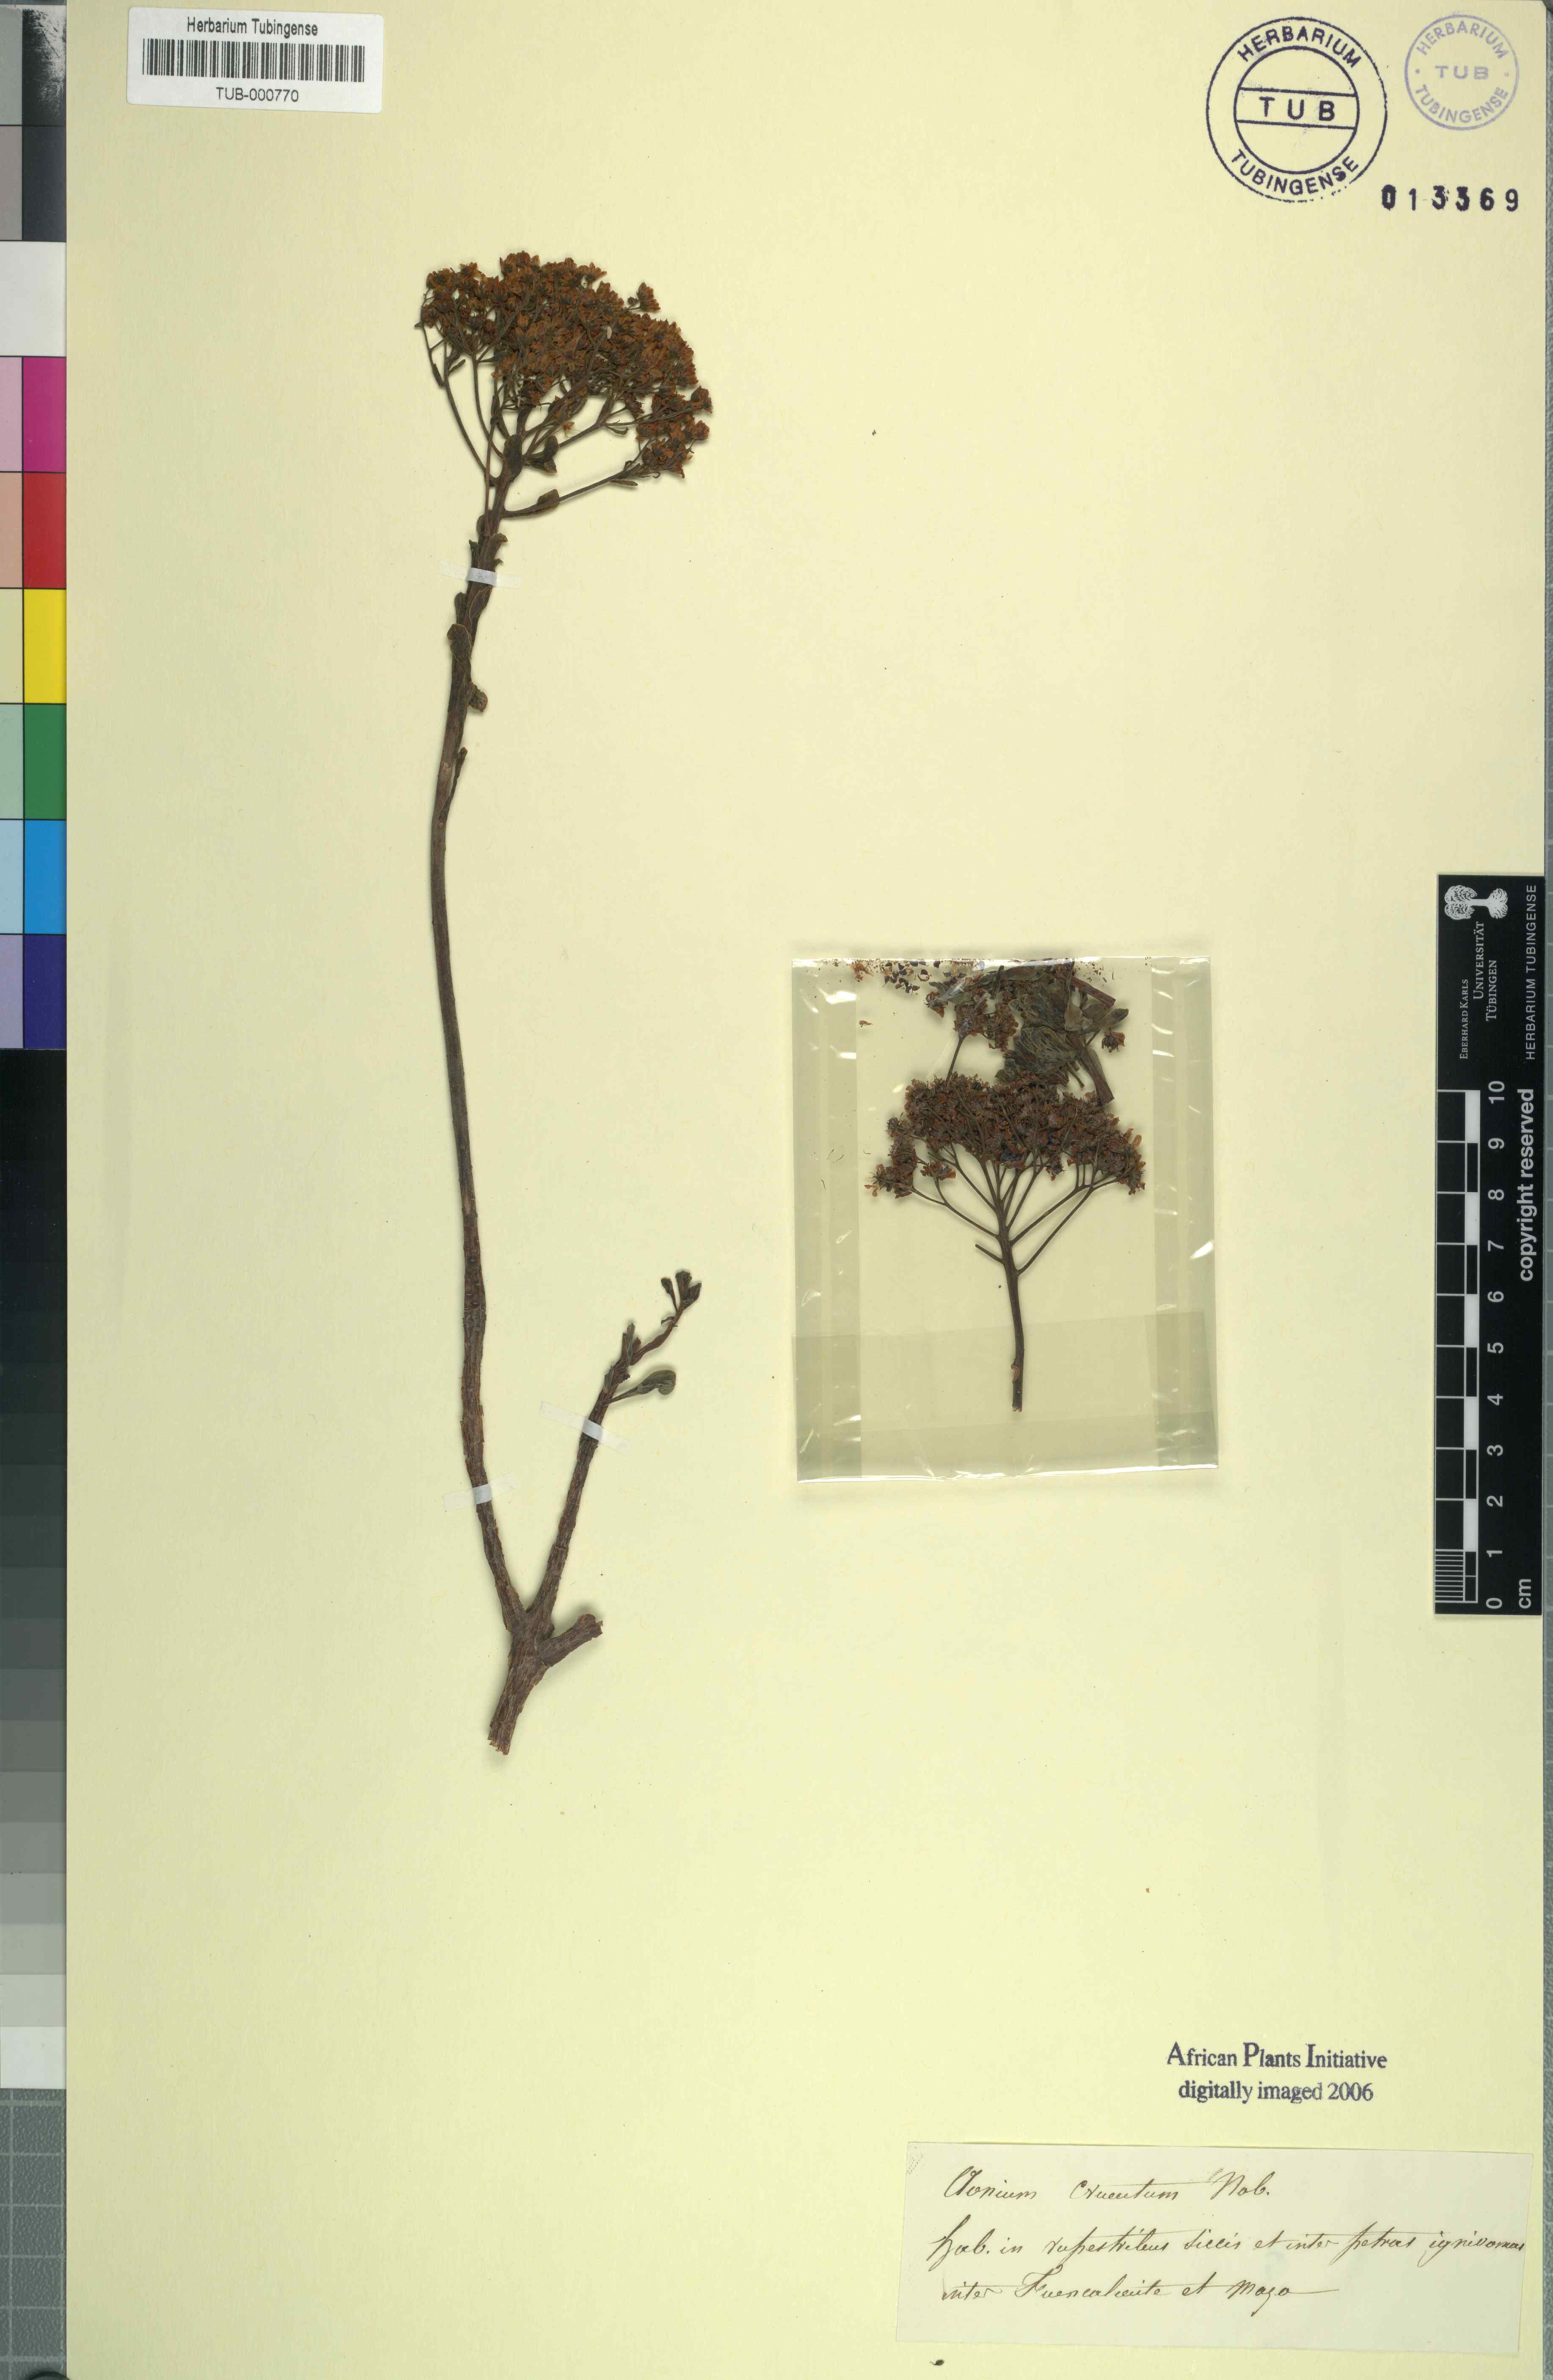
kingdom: Plantae
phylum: Tracheophyta
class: Magnoliopsida
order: Saxifragales
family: Crassulaceae
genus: Aeonium
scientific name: Aeonium spathulatum
